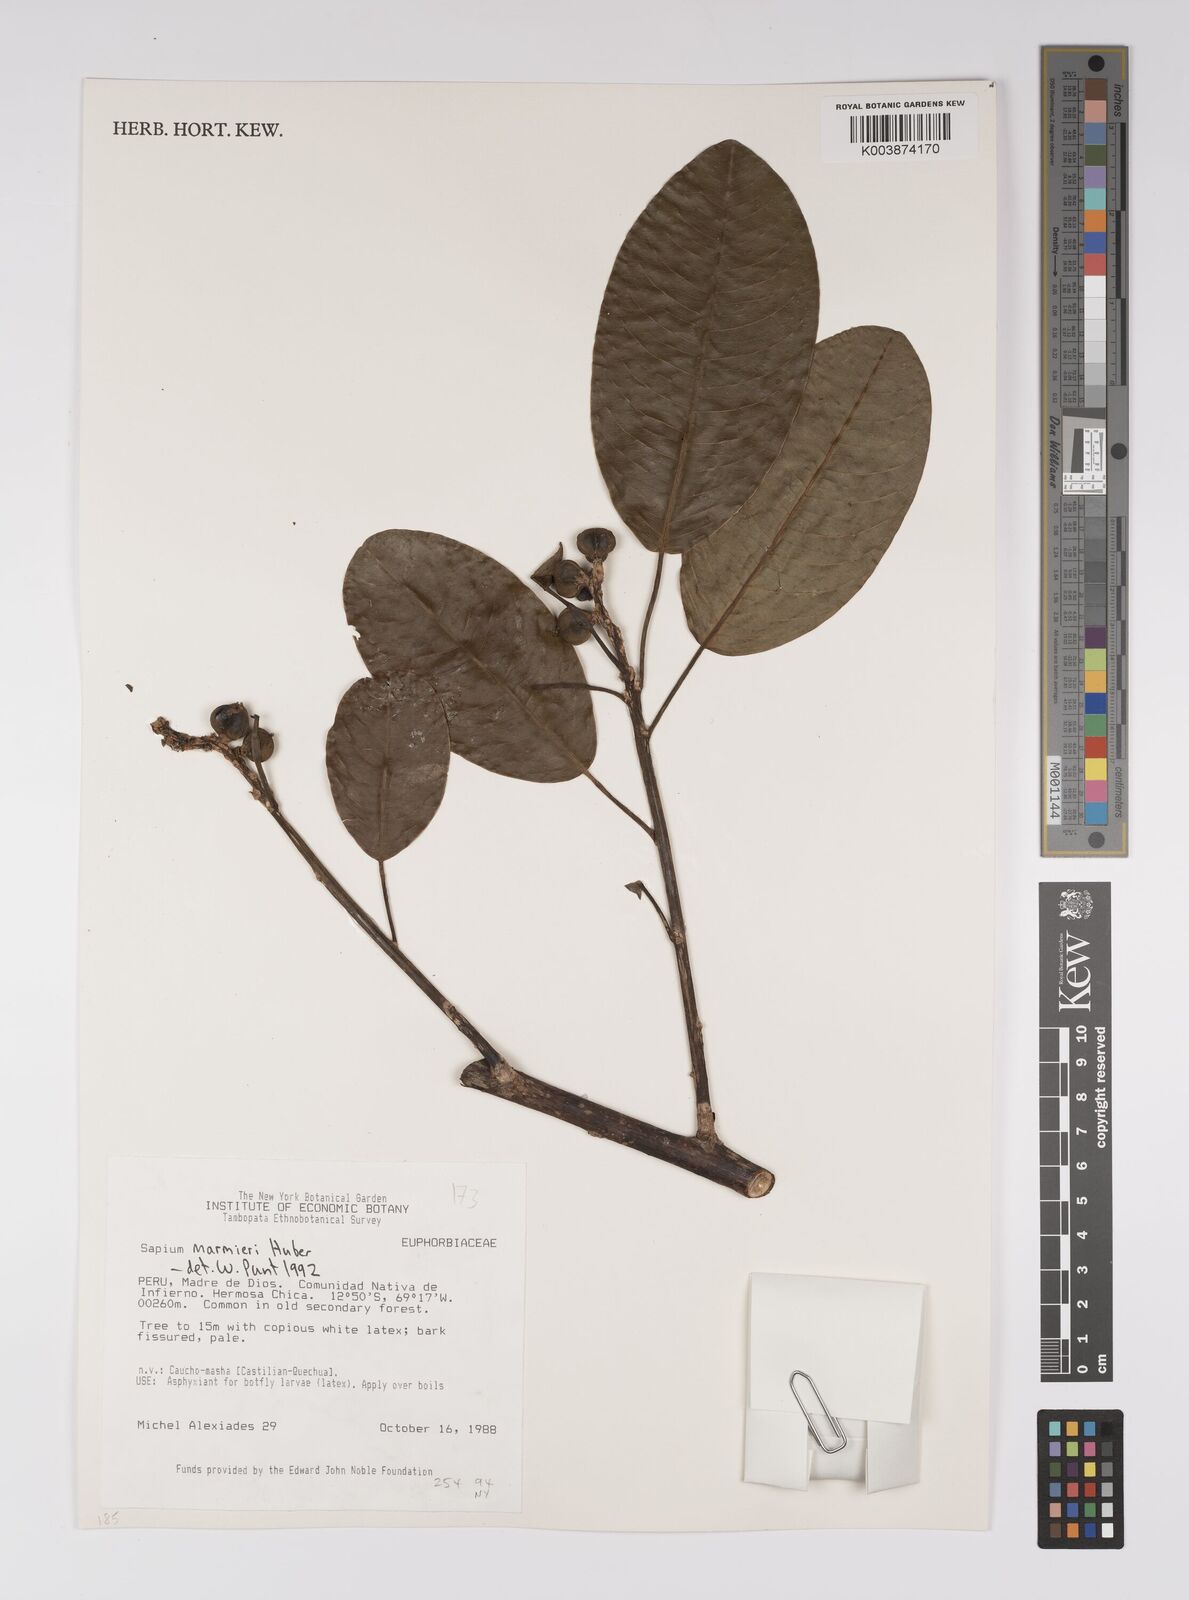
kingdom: Plantae
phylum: Tracheophyta
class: Magnoliopsida
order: Malpighiales
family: Euphorbiaceae
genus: Sapium
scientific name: Sapium marmieri
